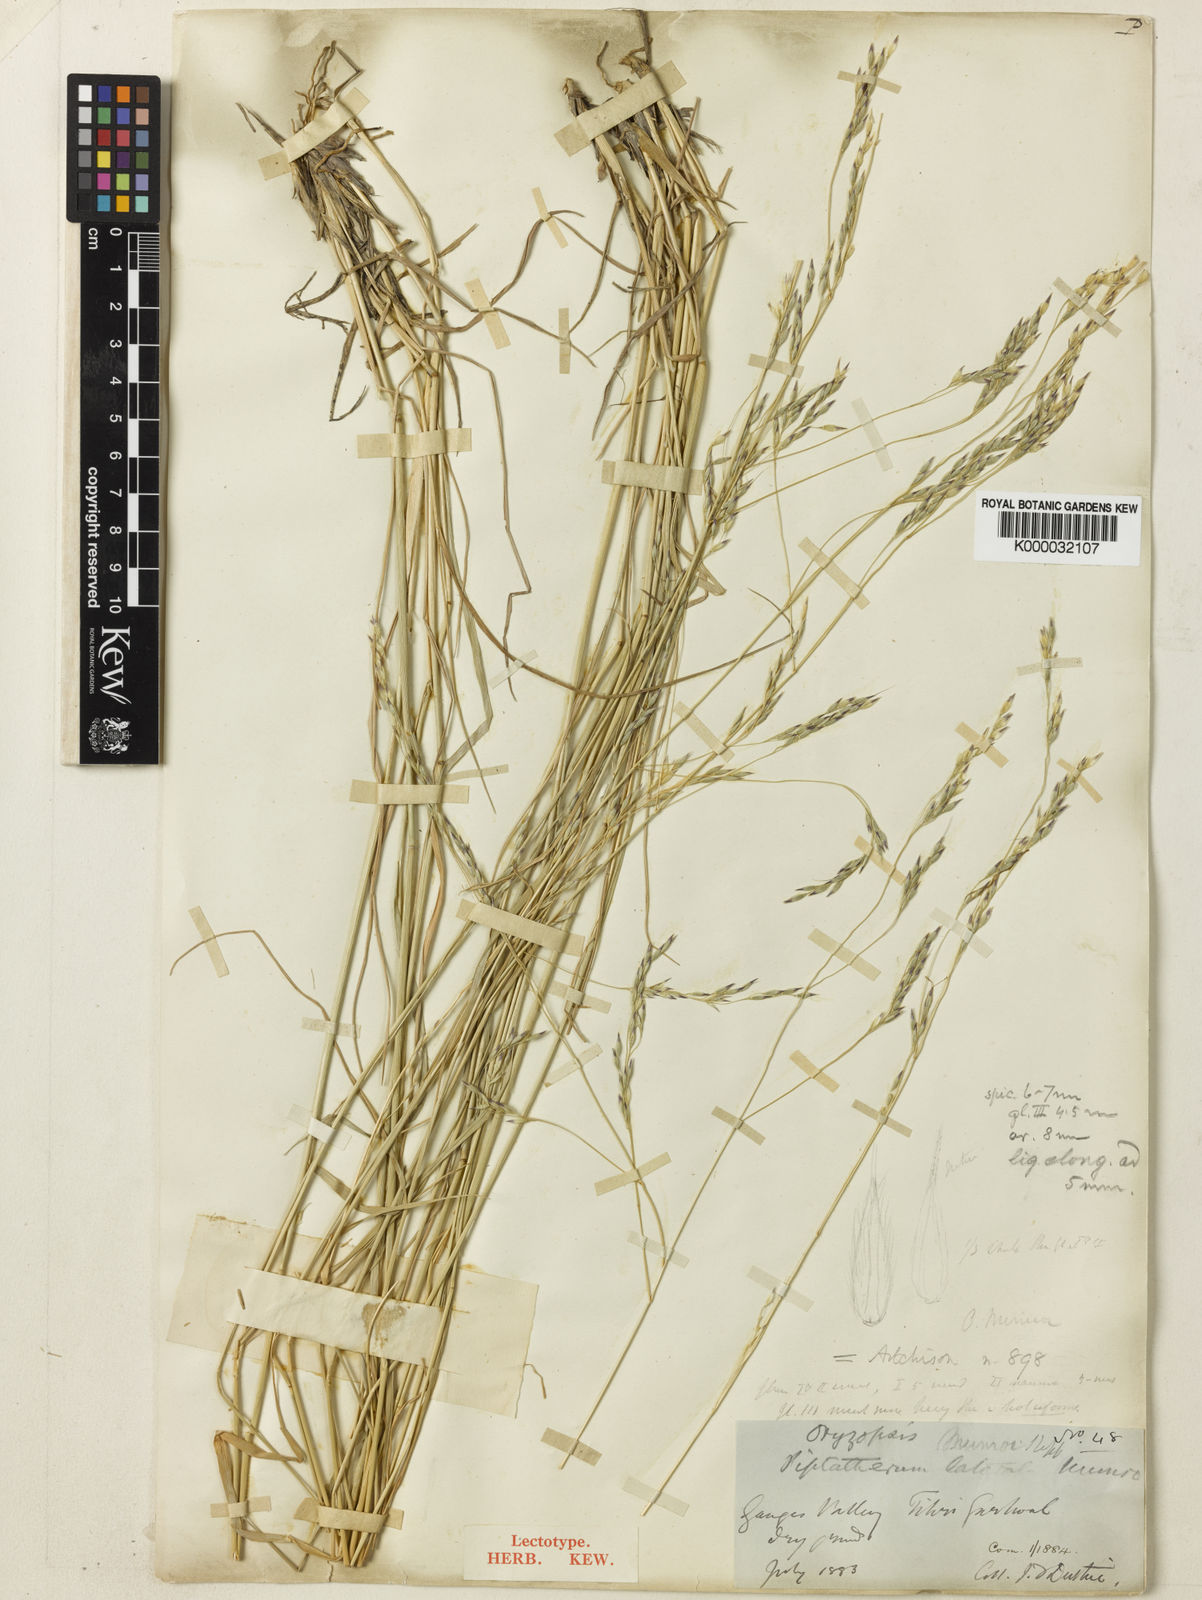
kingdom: Plantae
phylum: Tracheophyta
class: Liliopsida
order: Poales
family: Poaceae
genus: Piptatherum
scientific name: Piptatherum munroi
